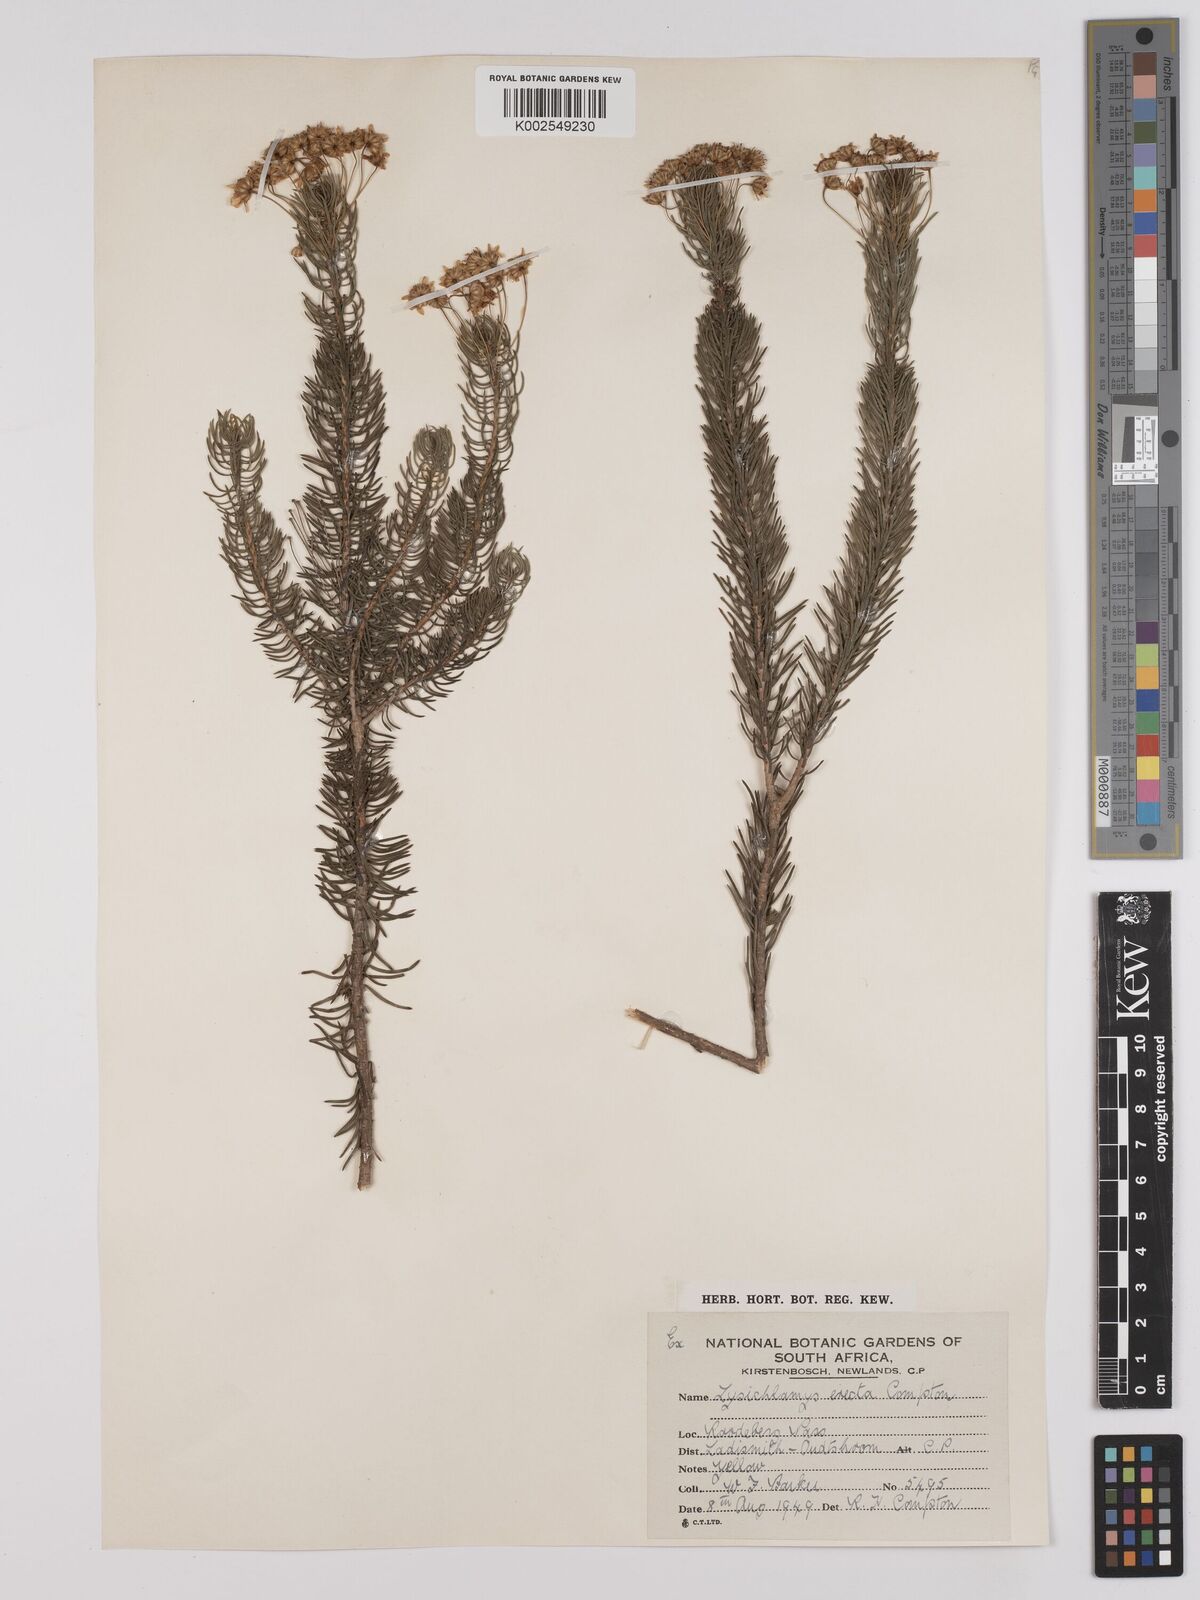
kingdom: Plantae
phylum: Tracheophyta
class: Magnoliopsida
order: Asterales
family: Asteraceae
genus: Euryops
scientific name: Euryops erectus
